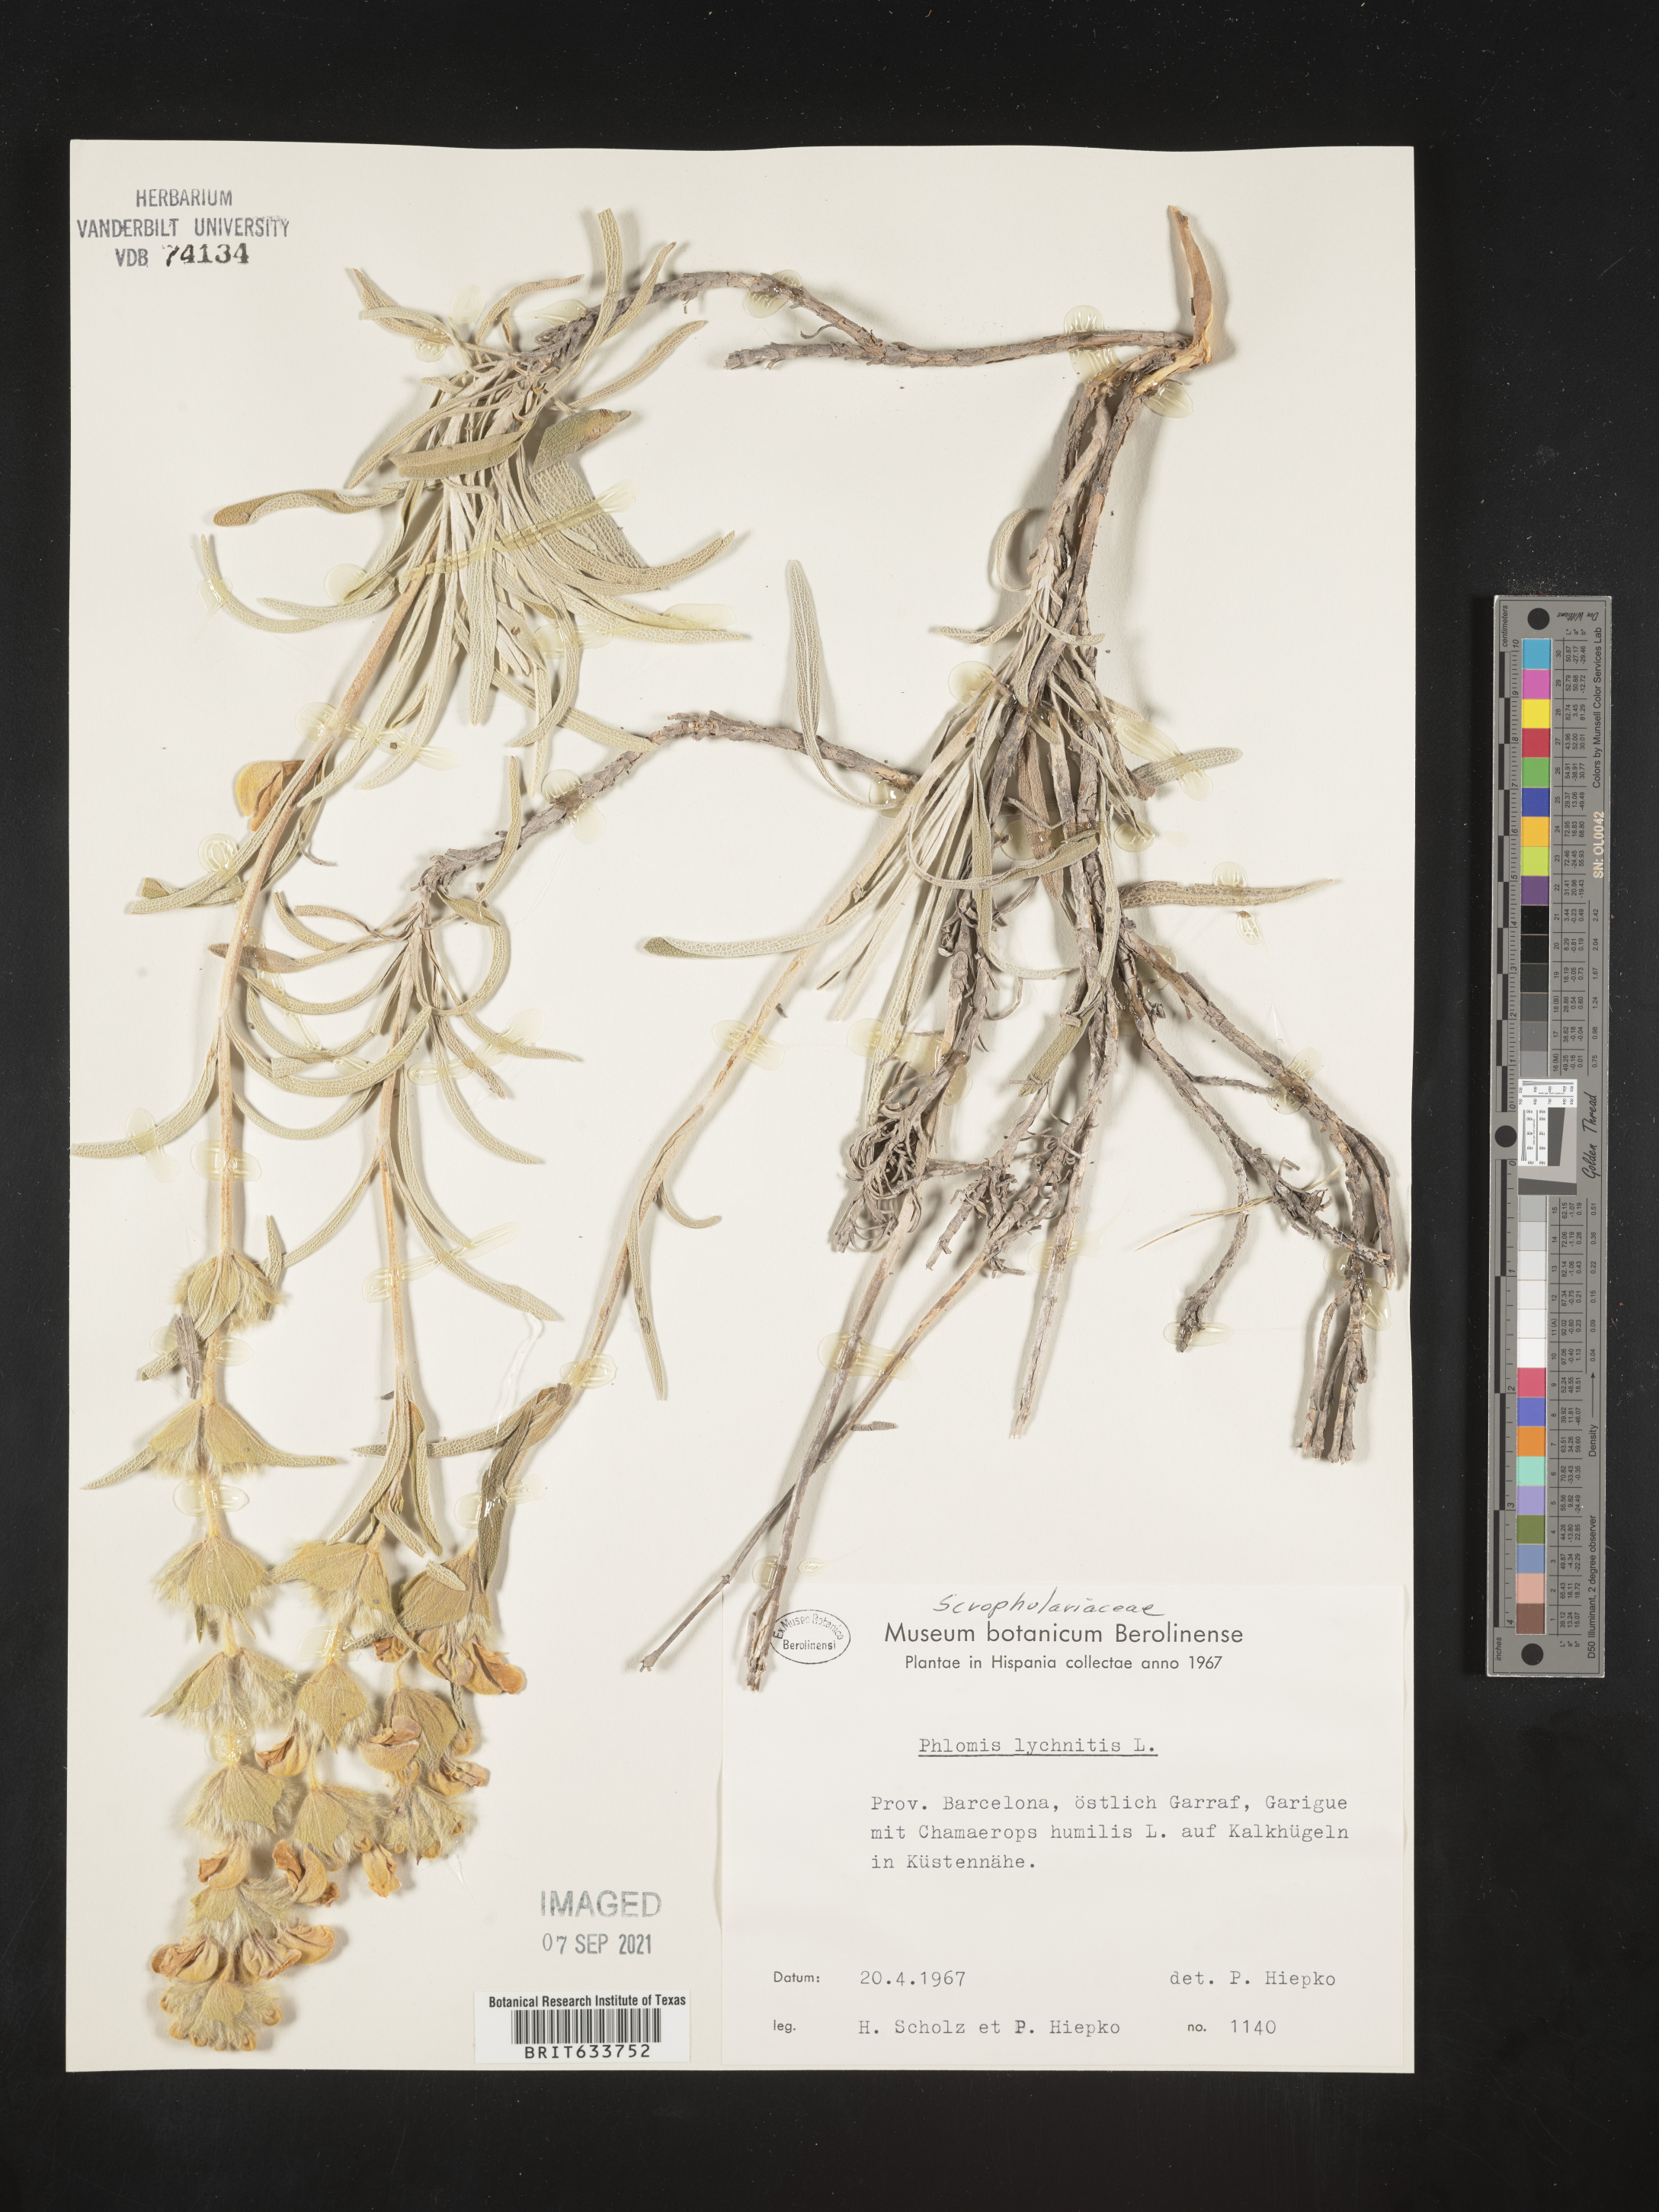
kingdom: Plantae
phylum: Tracheophyta
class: Magnoliopsida
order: Lamiales
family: Lamiaceae
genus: Phlomis
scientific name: Phlomis
